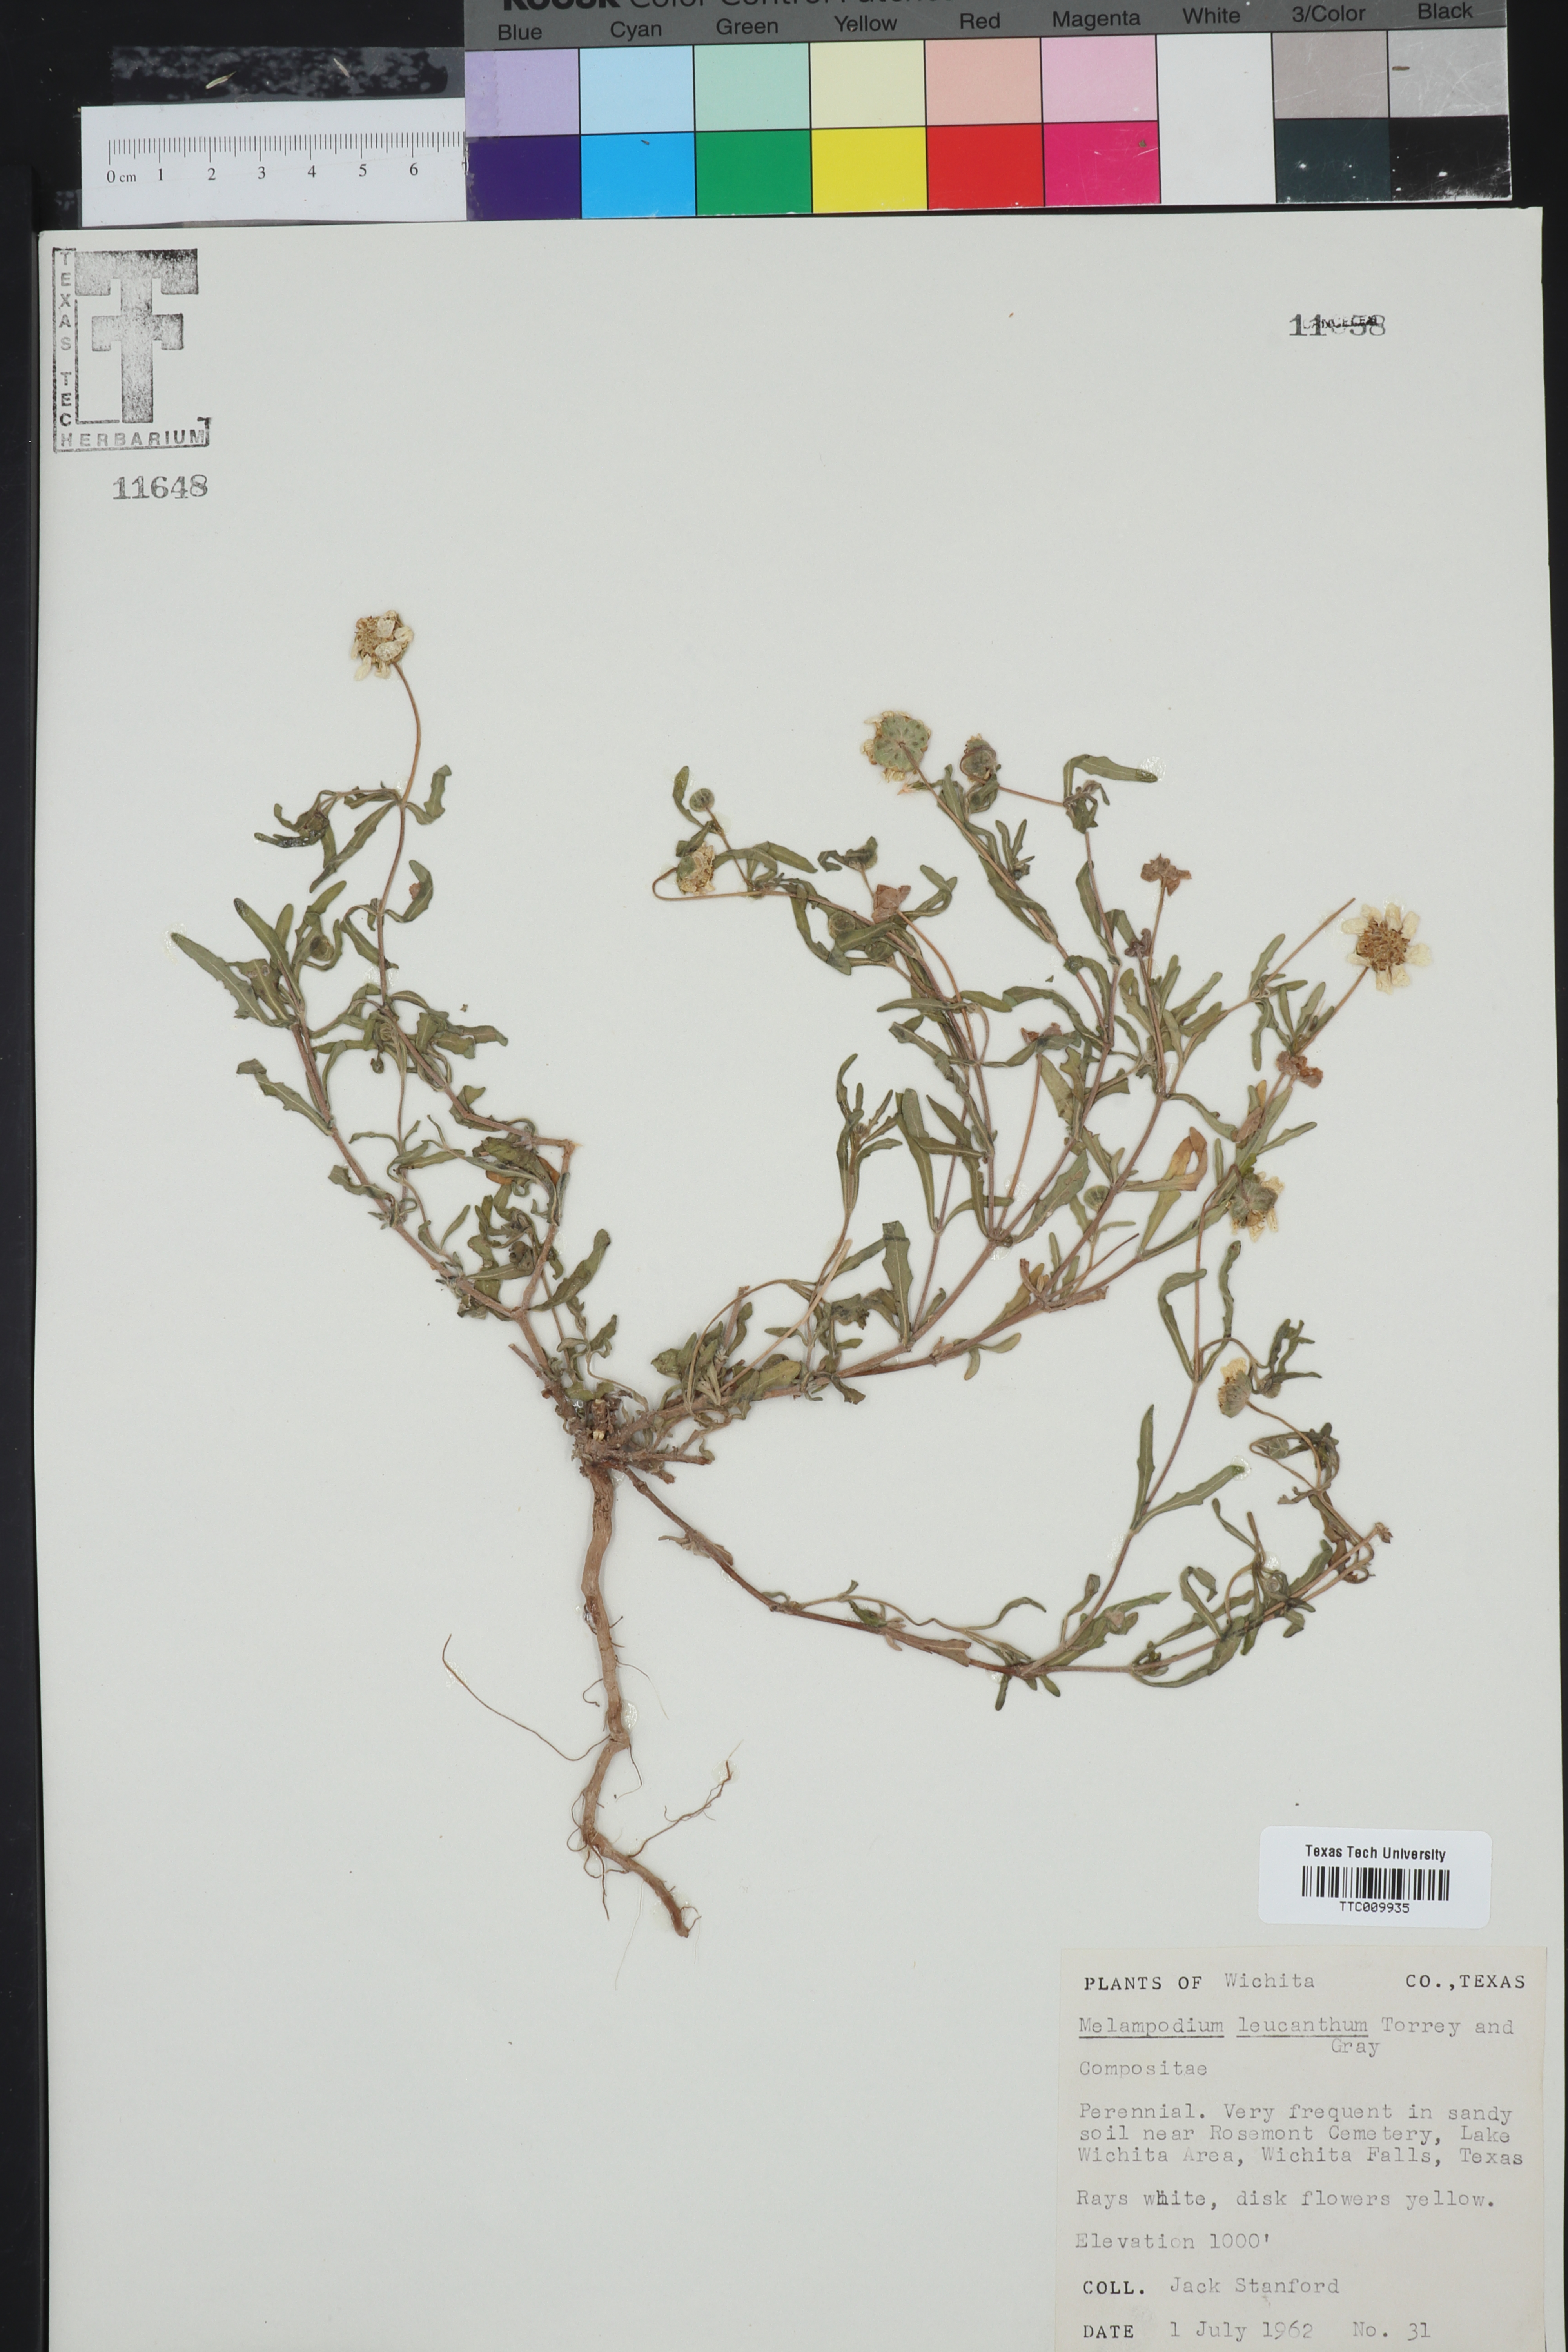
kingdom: Plantae
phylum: Tracheophyta
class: Magnoliopsida
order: Asterales
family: Asteraceae
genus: Melampodium
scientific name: Melampodium leucanthum
